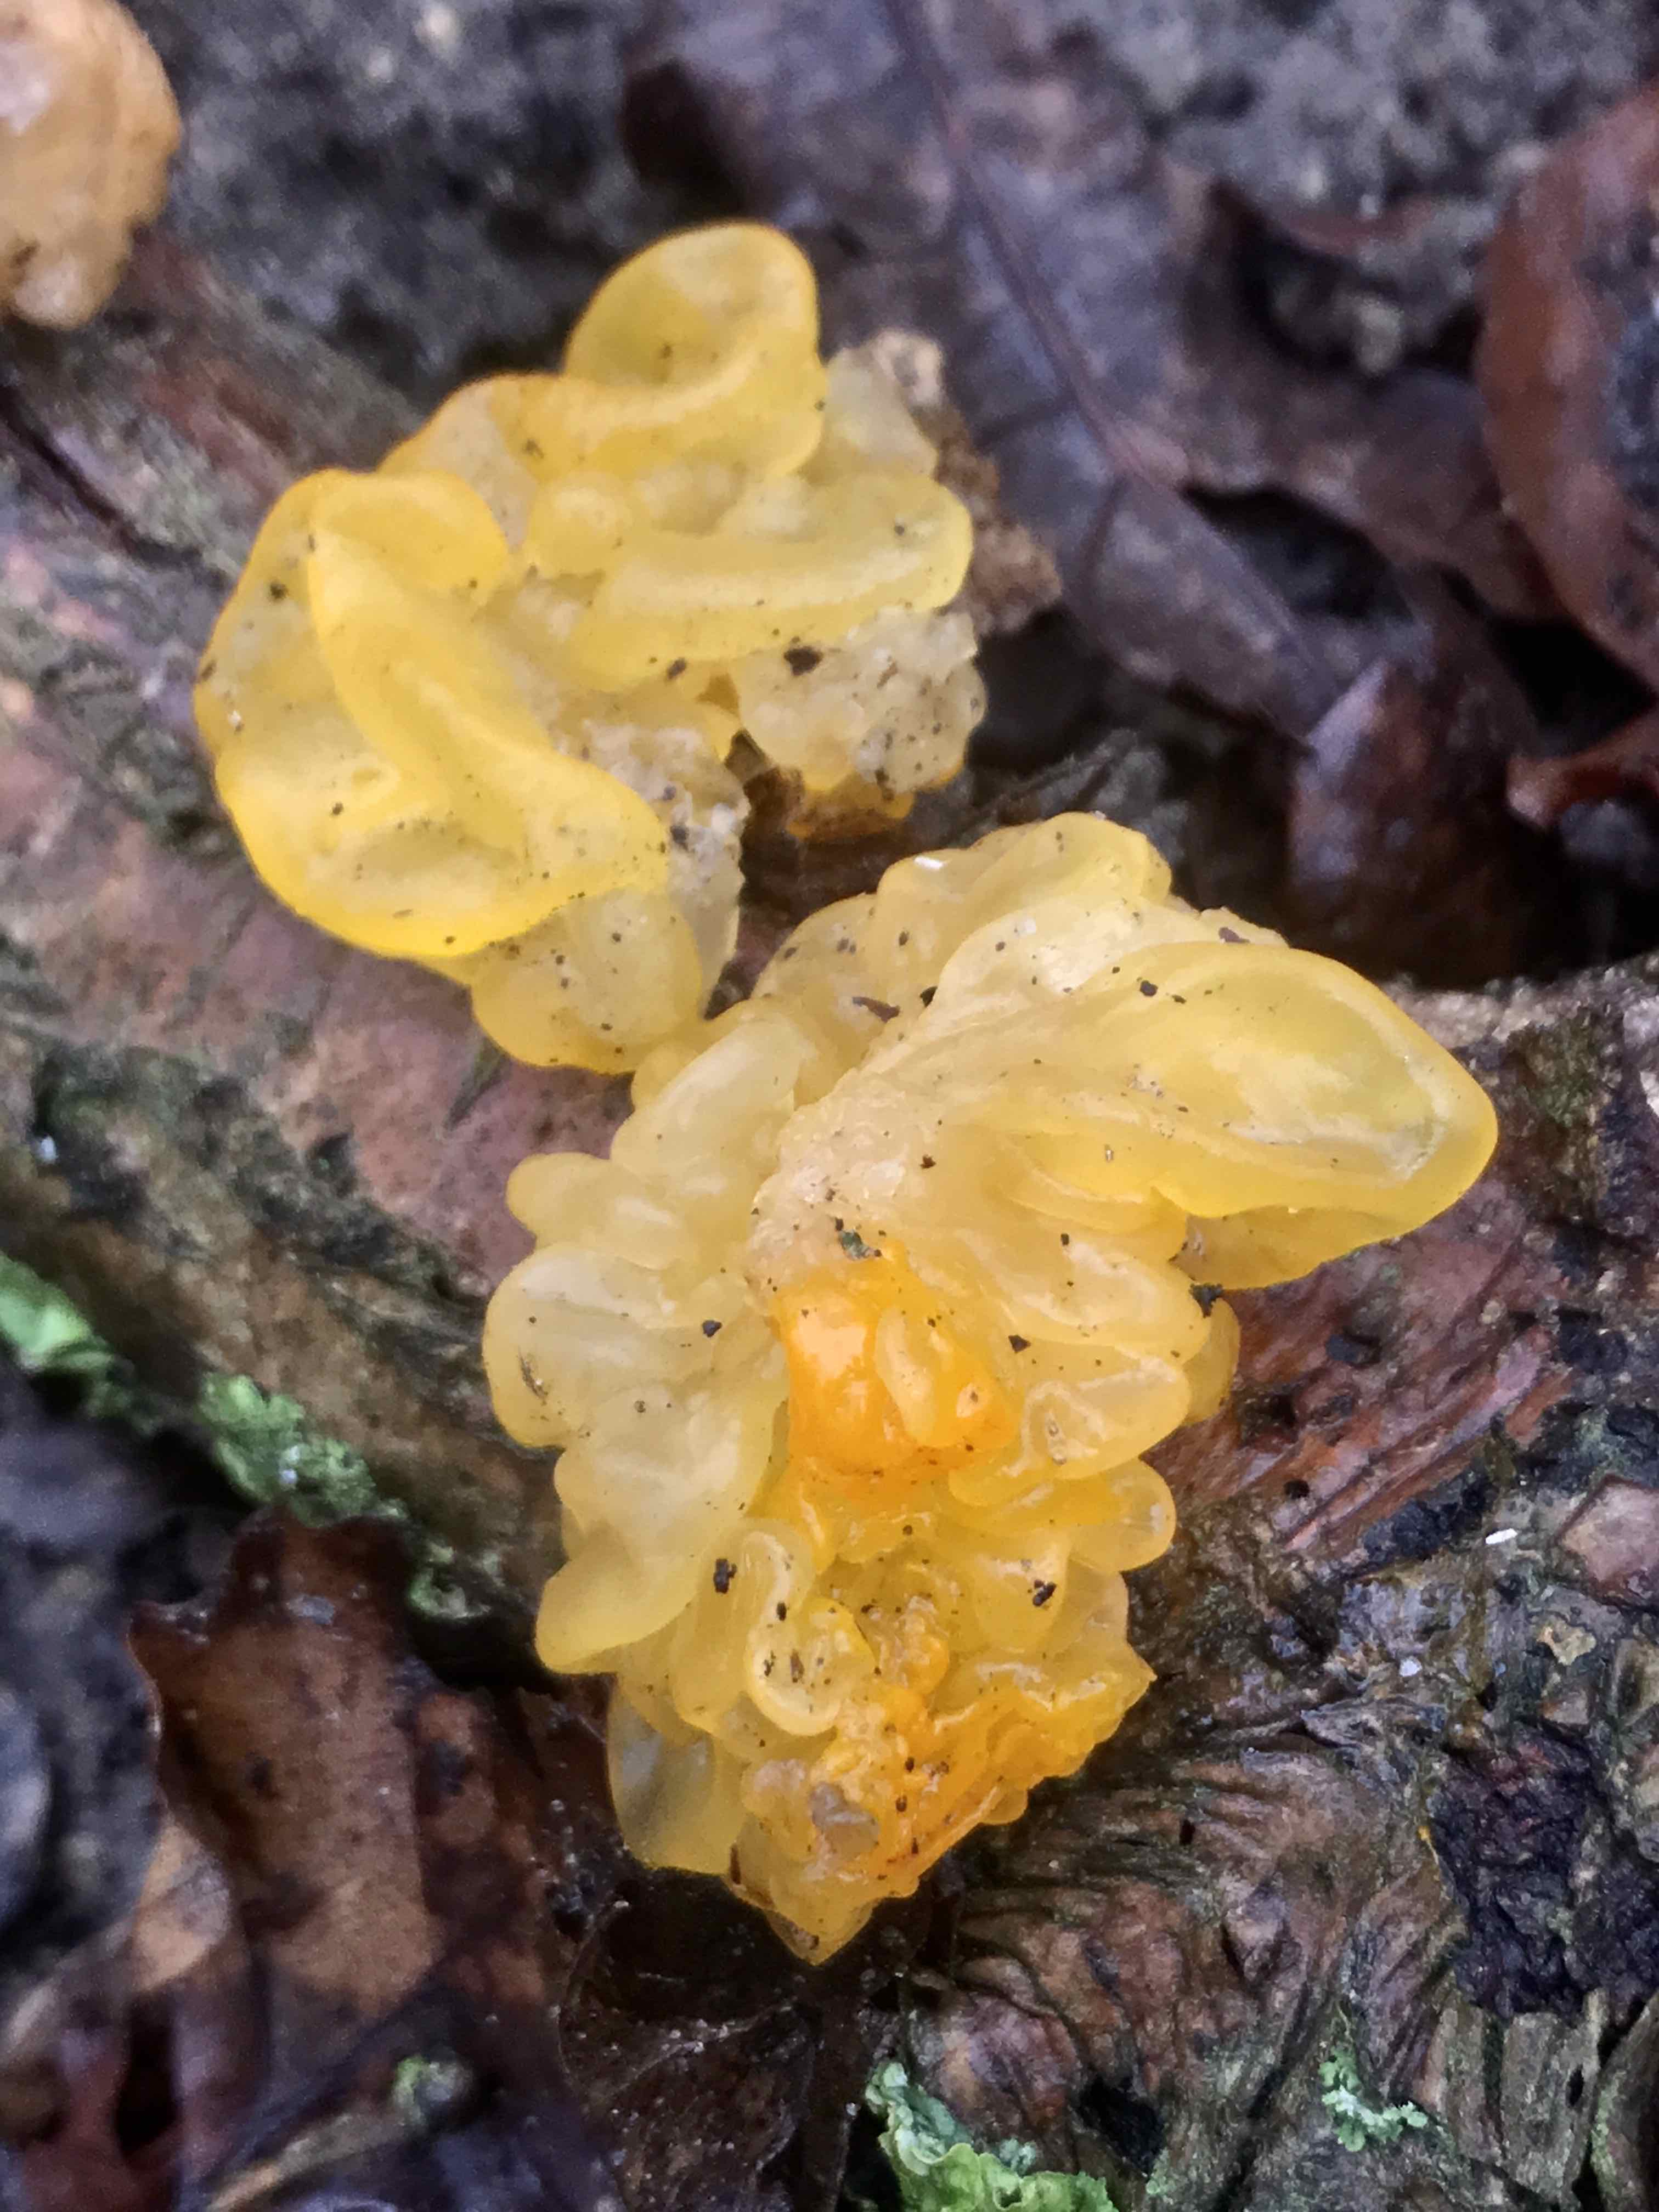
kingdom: Fungi
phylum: Basidiomycota
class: Tremellomycetes
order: Tremellales
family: Tremellaceae
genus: Tremella
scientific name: Tremella mesenterica
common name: gul bævresvamp
